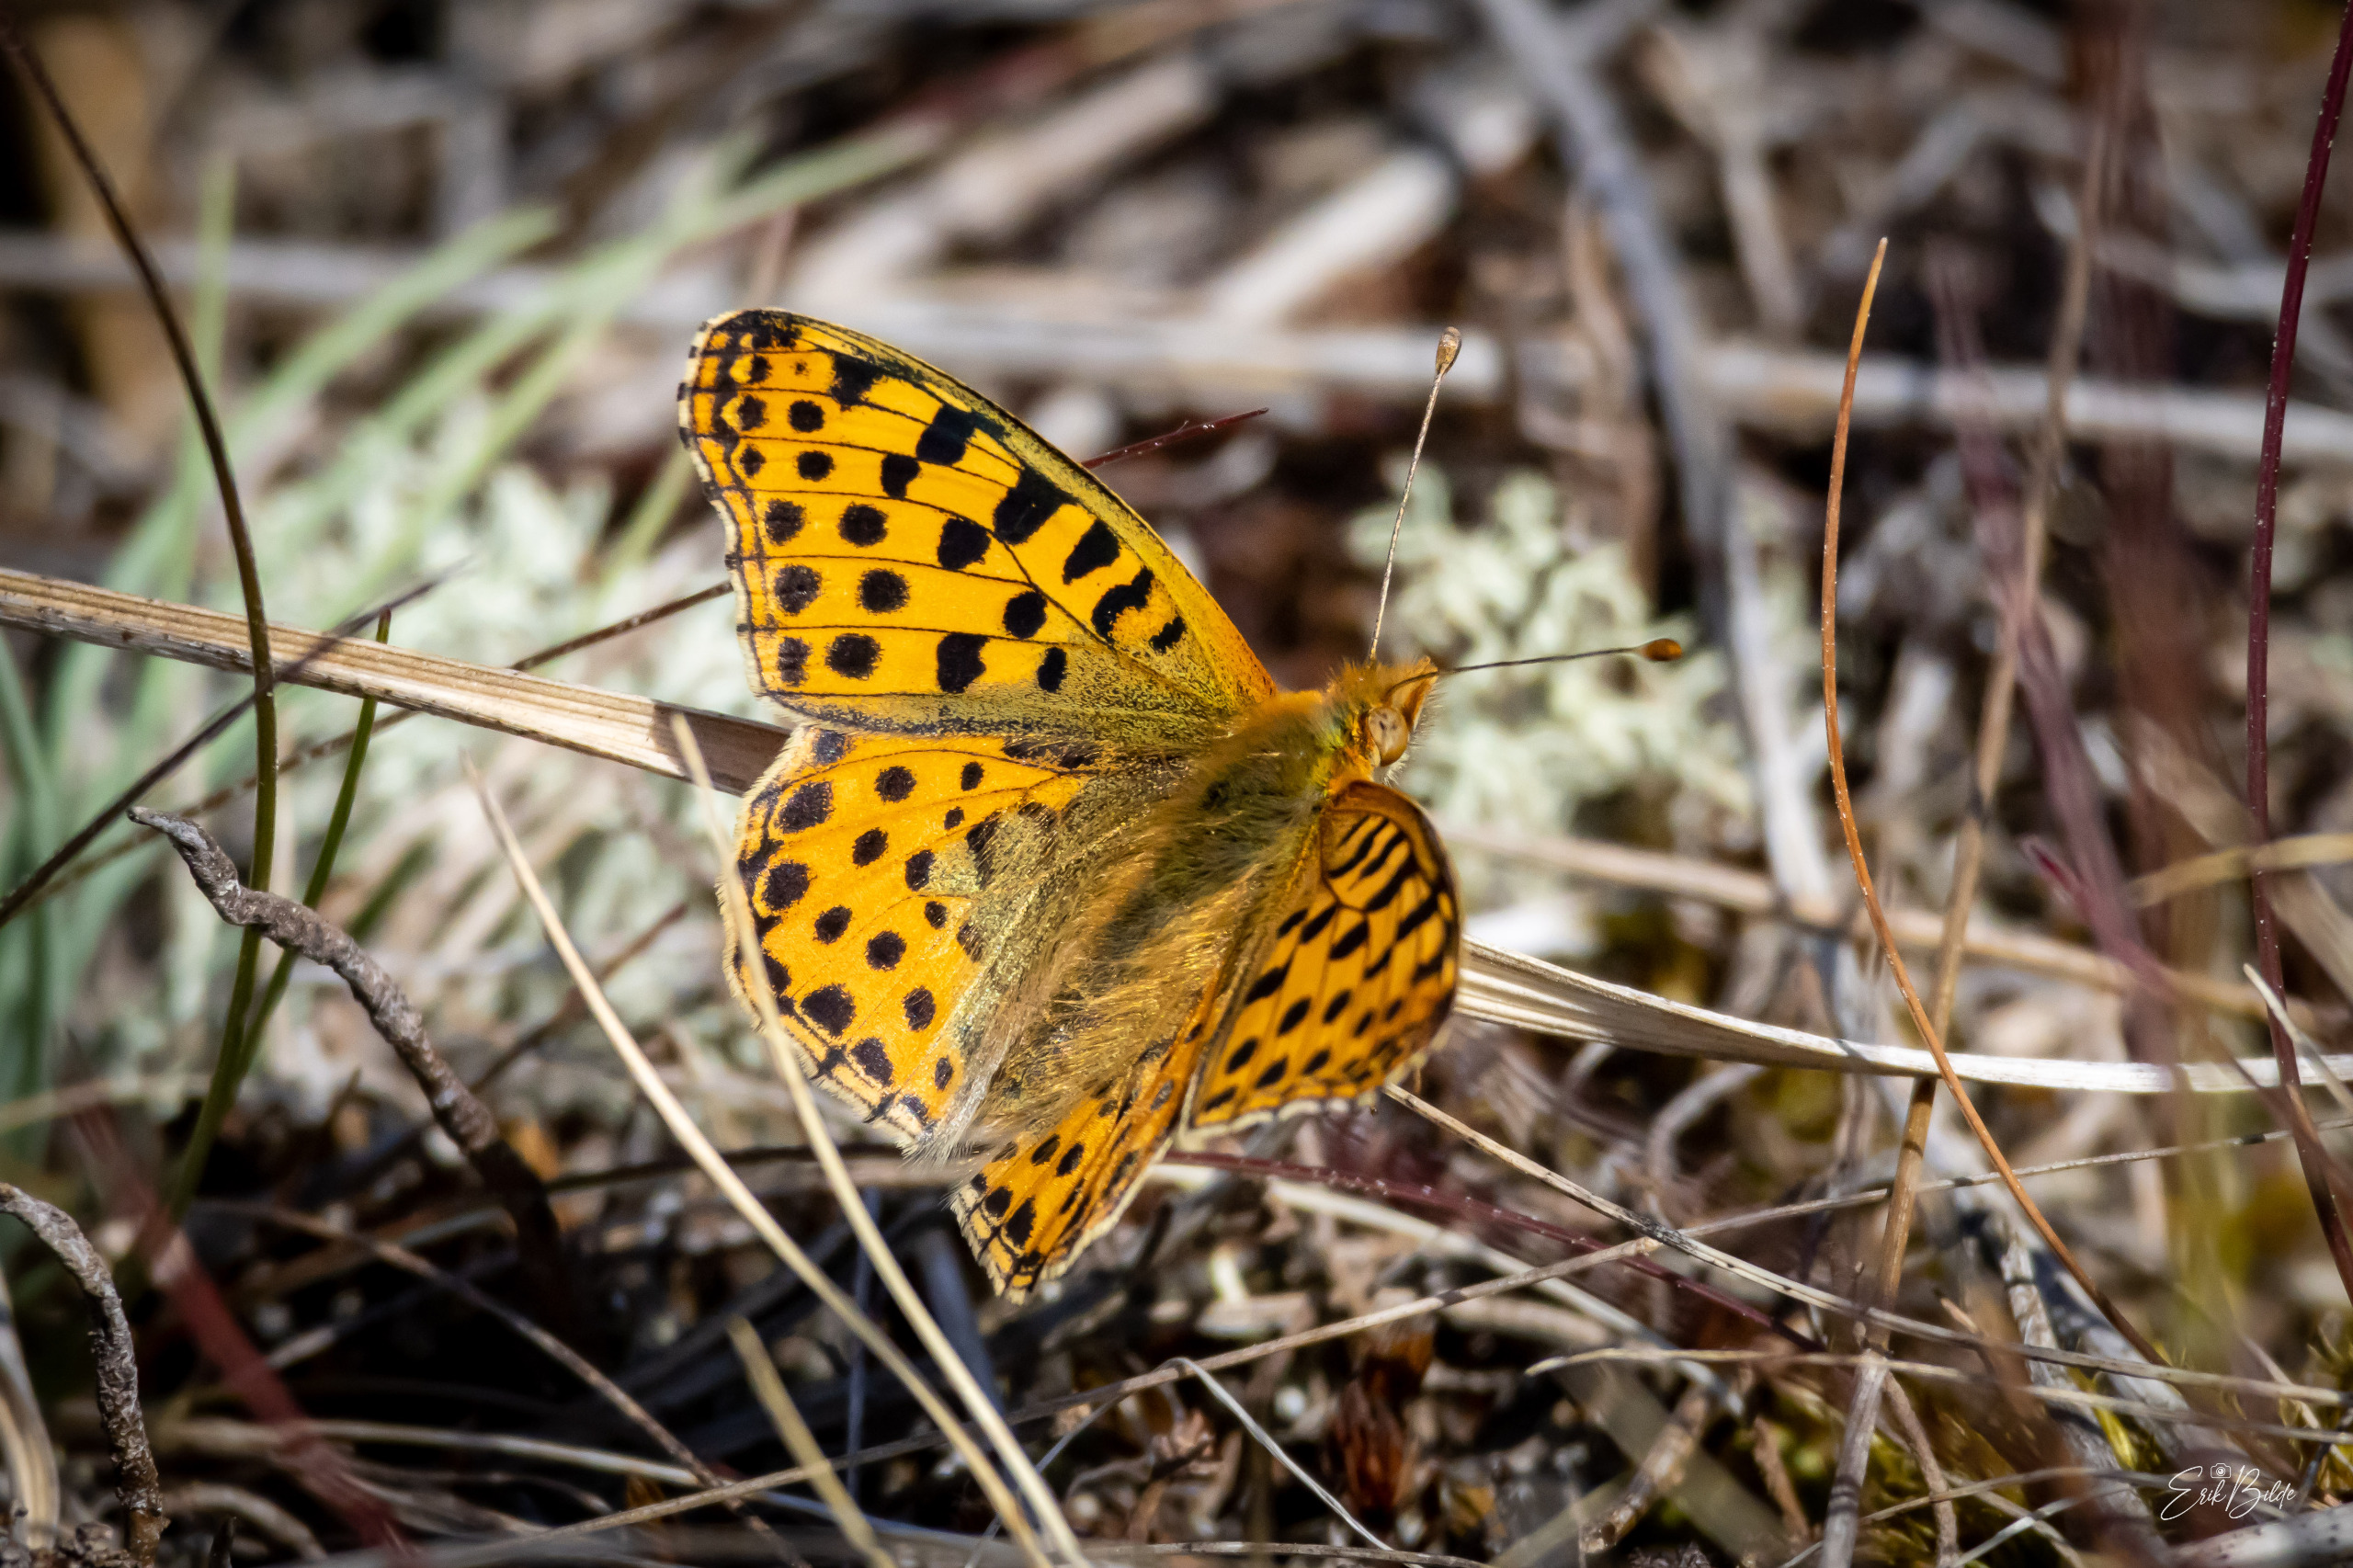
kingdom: Animalia
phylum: Arthropoda
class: Insecta
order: Lepidoptera
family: Nymphalidae
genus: Issoria
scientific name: Issoria lathonia
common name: Storplettet perlemorsommerfugl
